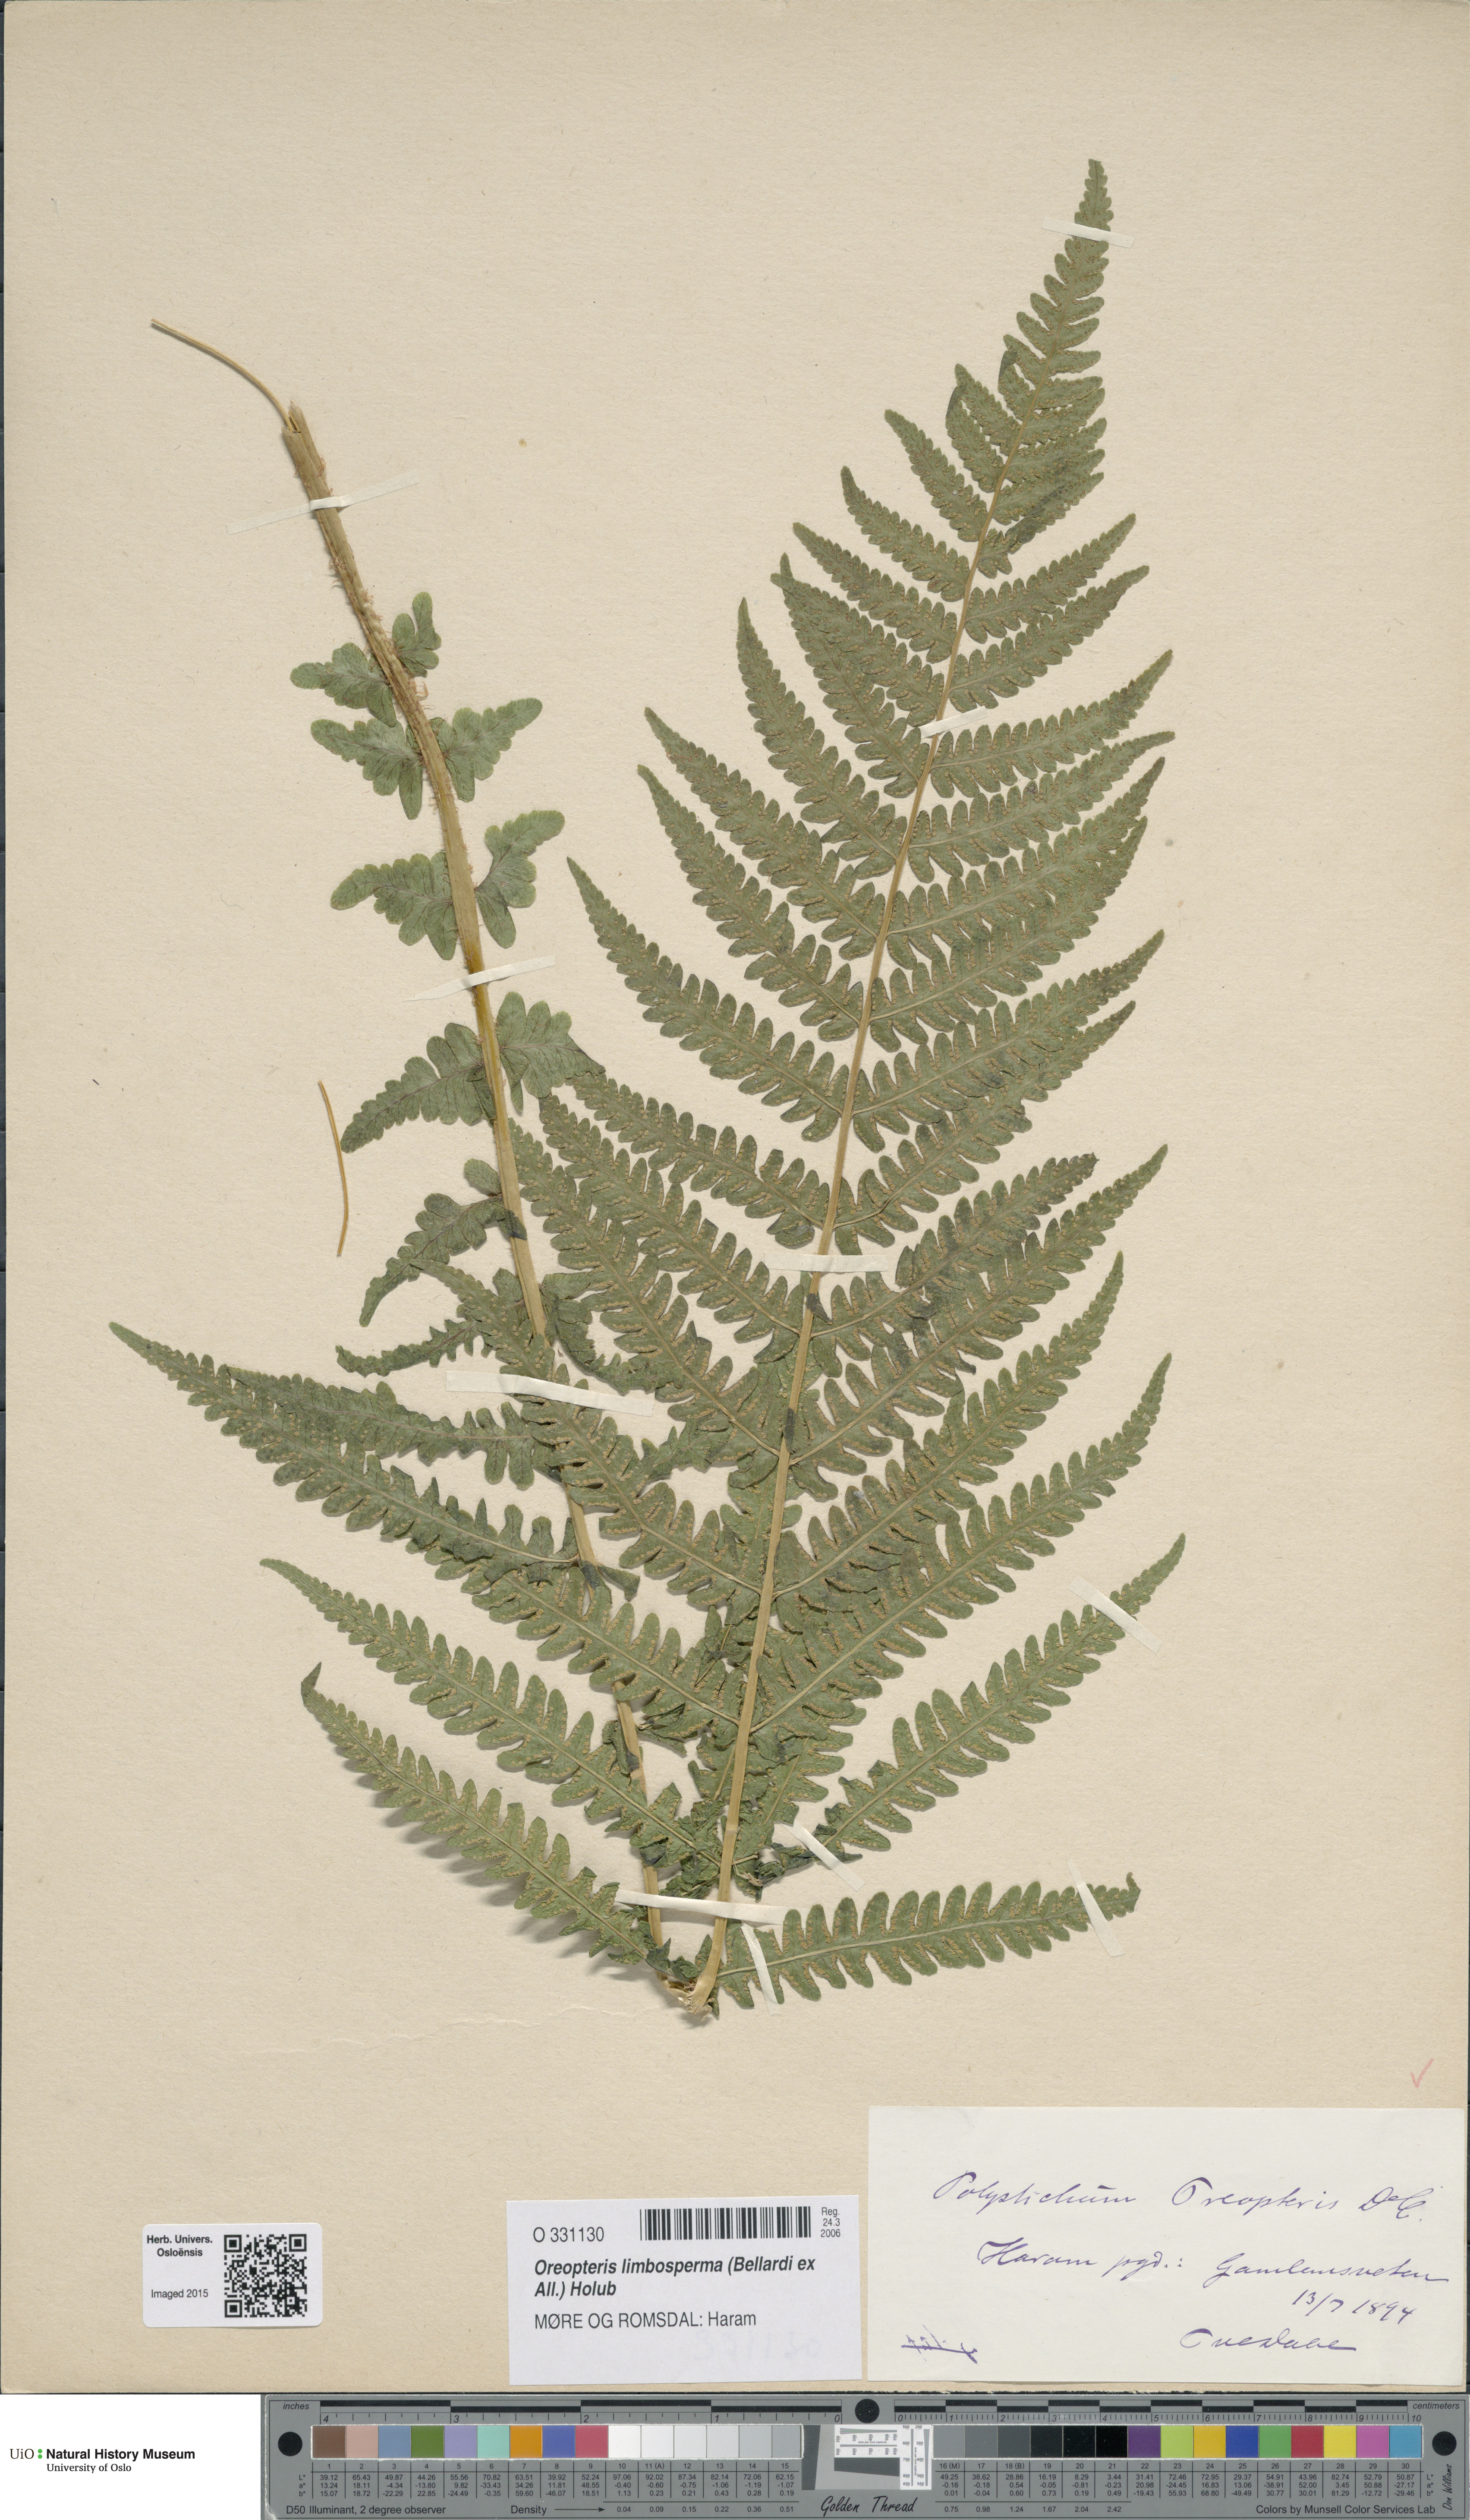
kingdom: Plantae
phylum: Tracheophyta
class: Polypodiopsida
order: Polypodiales
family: Thelypteridaceae
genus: Oreopteris
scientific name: Oreopteris limbosperma
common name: Lemon-scented fern
